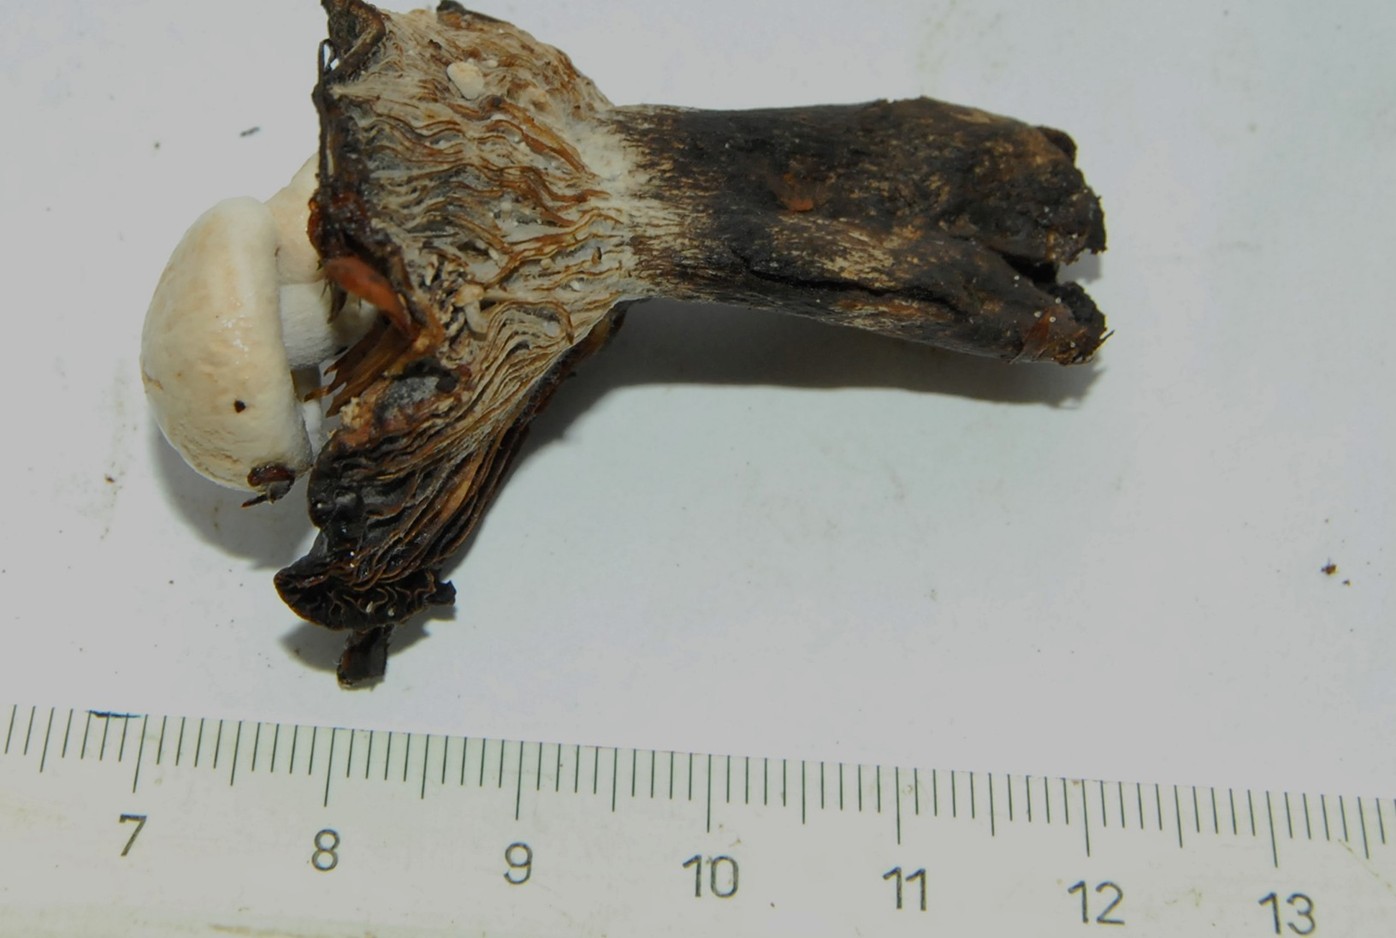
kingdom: Fungi
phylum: Basidiomycota
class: Agaricomycetes
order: Agaricales
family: Lyophyllaceae
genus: Asterophora
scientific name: Asterophora lycoperdoides
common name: brunpudret snyltehat
